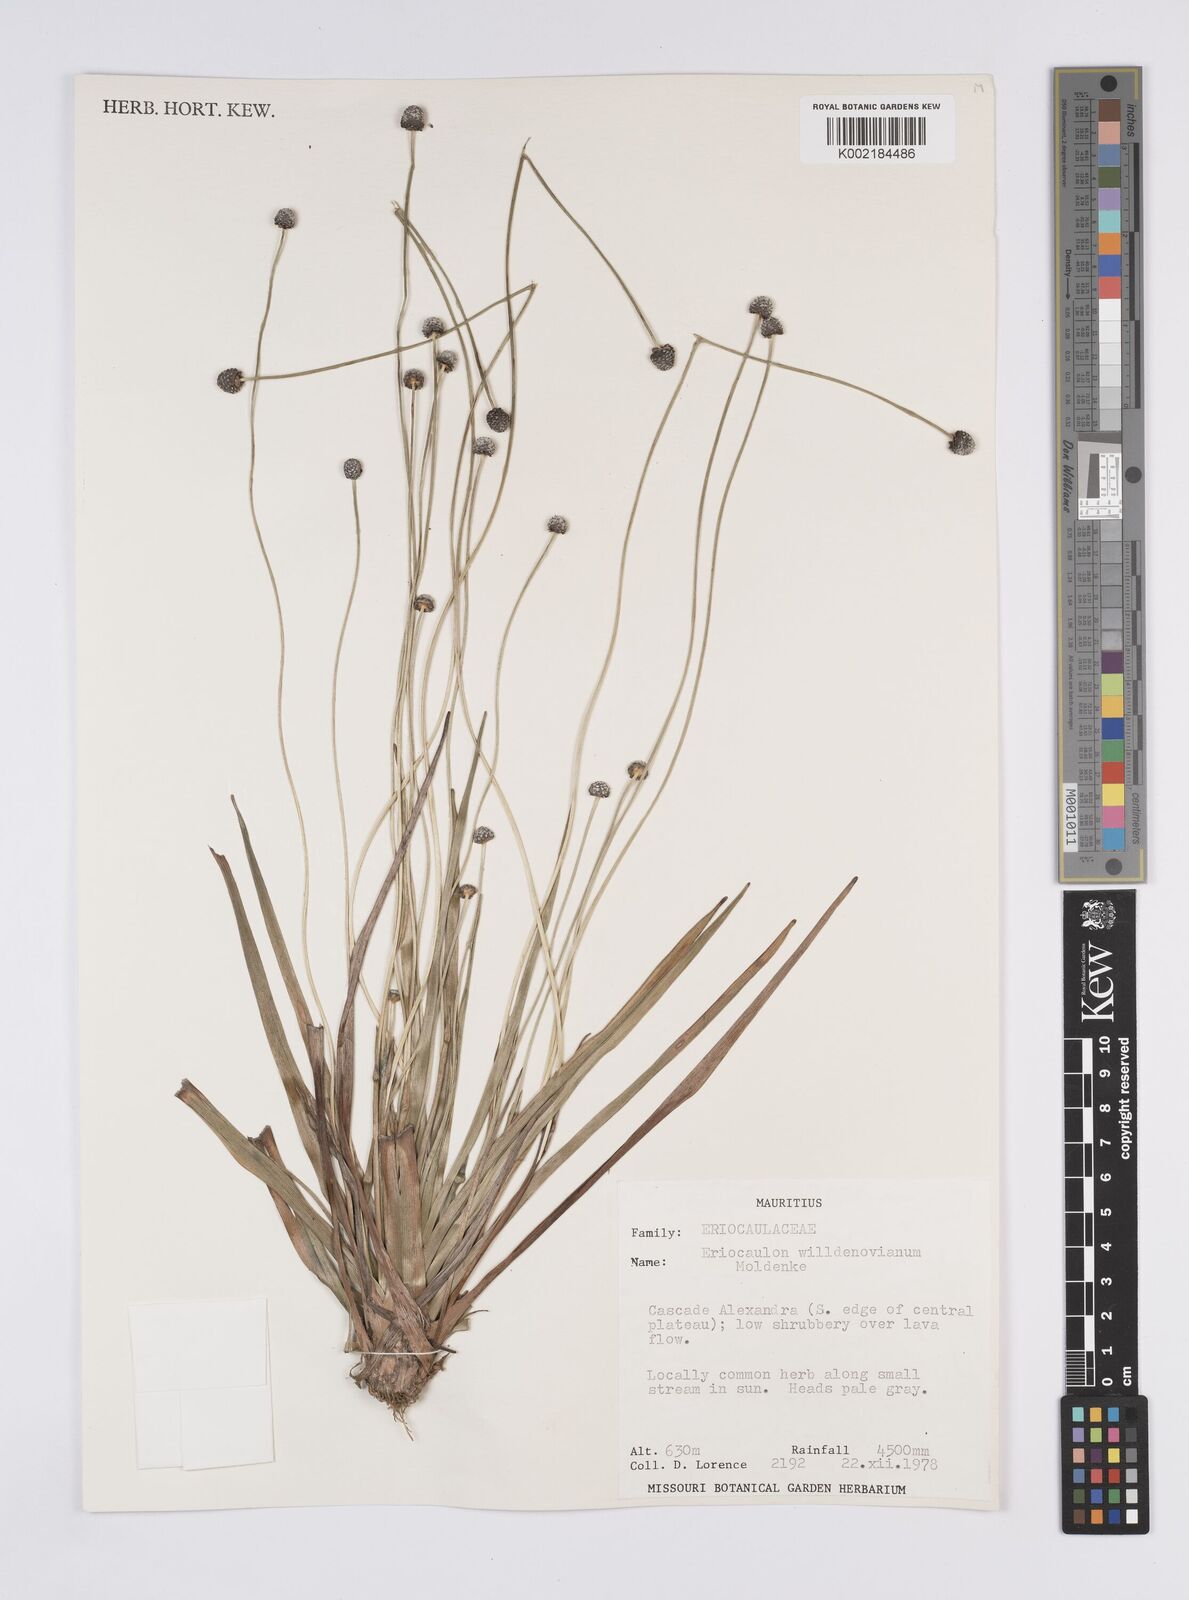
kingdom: Plantae
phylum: Tracheophyta
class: Liliopsida
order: Poales
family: Eriocaulaceae
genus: Eriocaulon
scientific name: Eriocaulon willdenovianum
